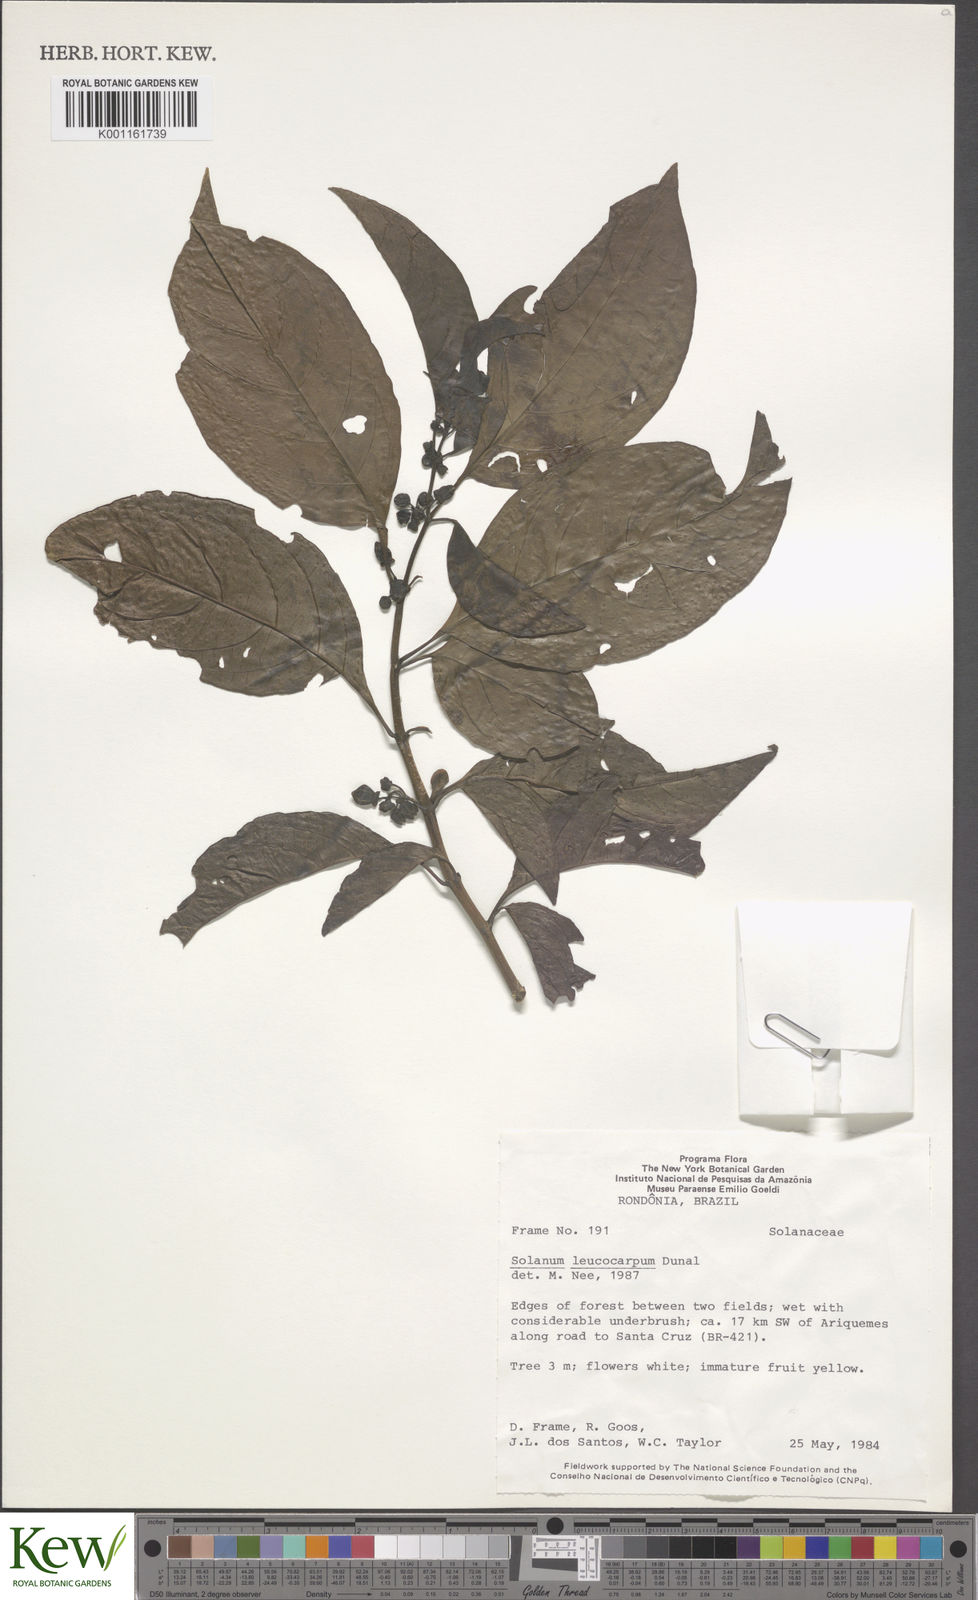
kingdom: Plantae
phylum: Tracheophyta
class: Magnoliopsida
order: Solanales
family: Solanaceae
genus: Solanum
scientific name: Solanum leucocarpon
